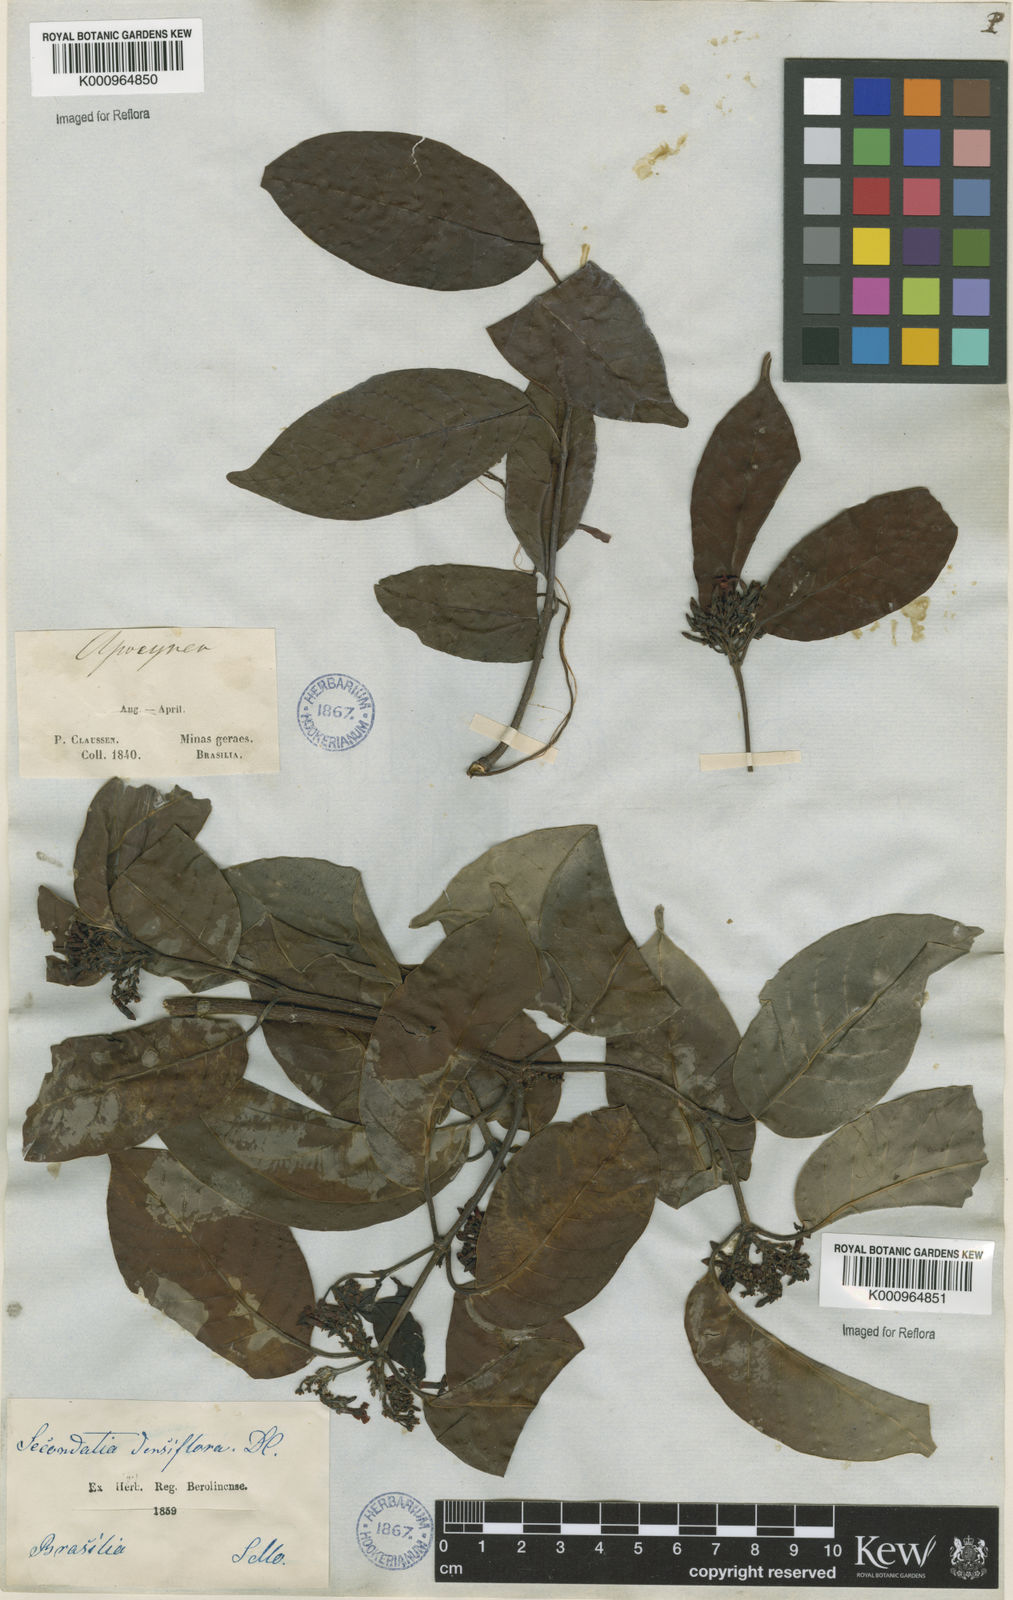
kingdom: Plantae
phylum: Tracheophyta
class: Magnoliopsida
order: Gentianales
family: Apocynaceae
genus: Secondatia
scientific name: Secondatia densiflora
